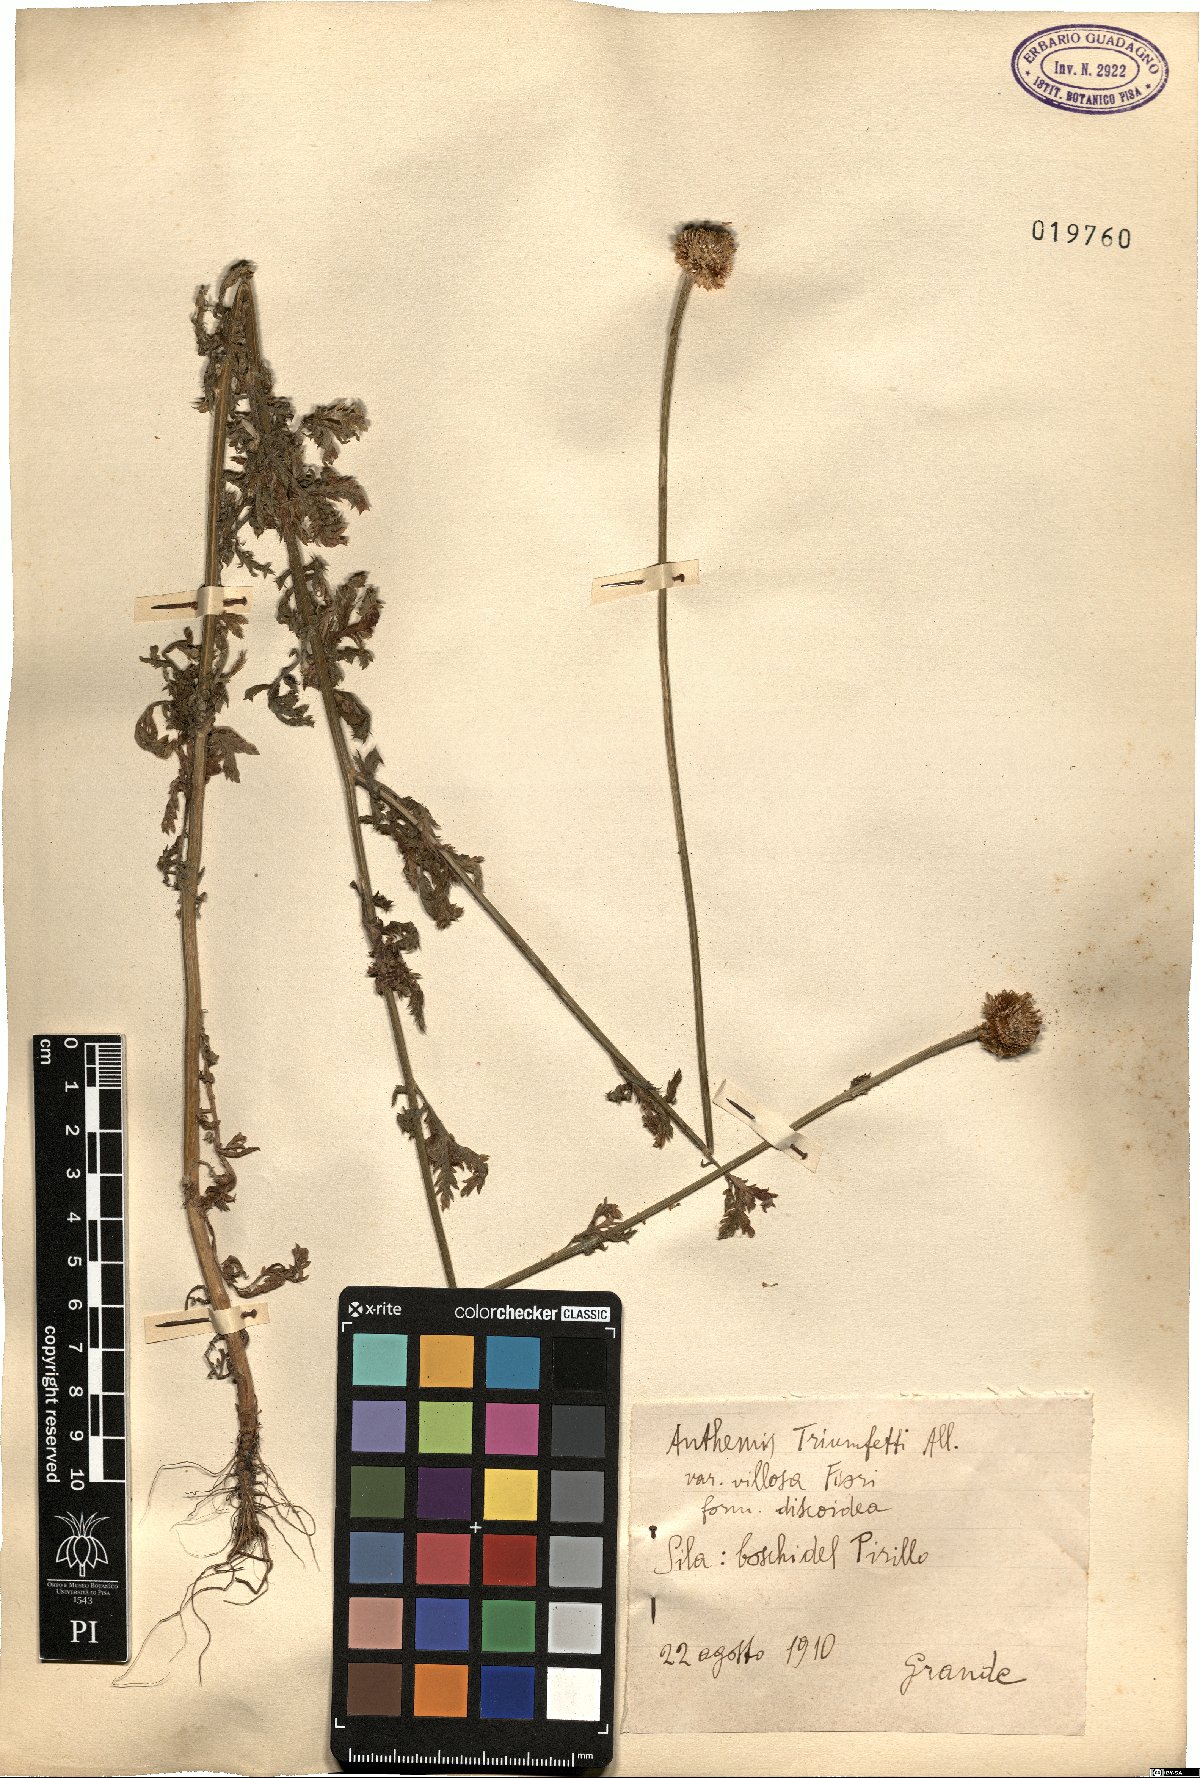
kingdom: Plantae
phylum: Tracheophyta
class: Magnoliopsida
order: Asterales
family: Asteraceae
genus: Cota
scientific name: Cota triumfetti
